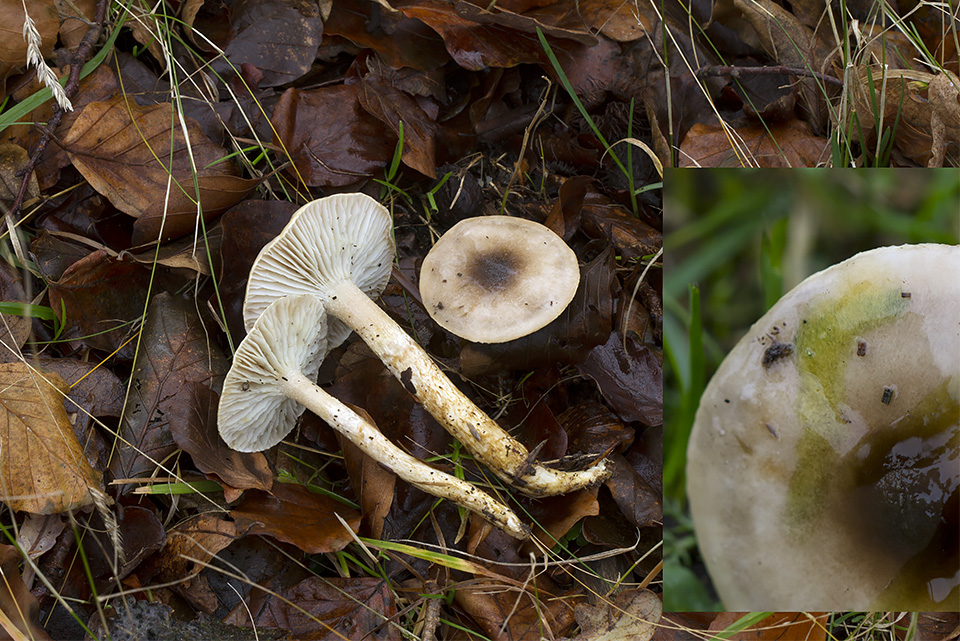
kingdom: Fungi
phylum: Basidiomycota
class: Agaricomycetes
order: Agaricales
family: Hygrophoraceae
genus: Hygrophorus
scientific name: Hygrophorus glutinifer
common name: tvefarvet sneglehat
